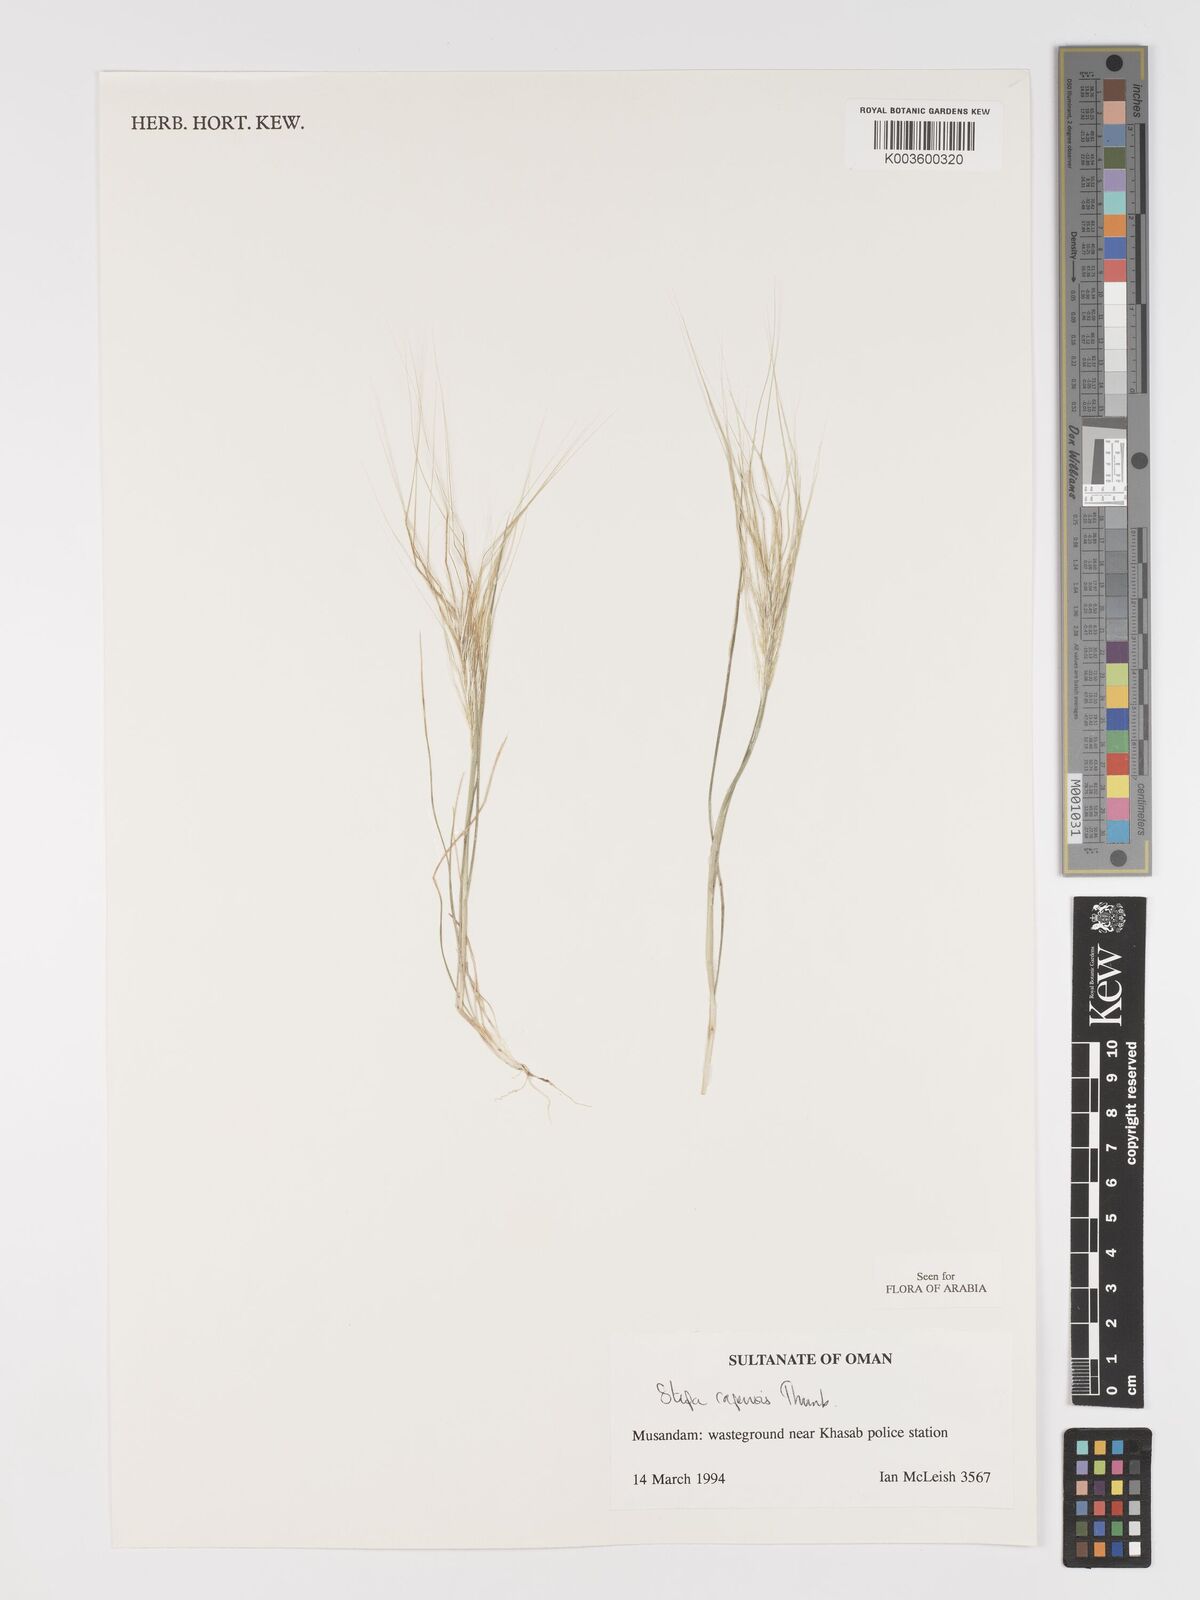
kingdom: Plantae
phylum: Tracheophyta
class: Liliopsida
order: Poales
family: Poaceae
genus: Stipellula
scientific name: Stipellula capensis
